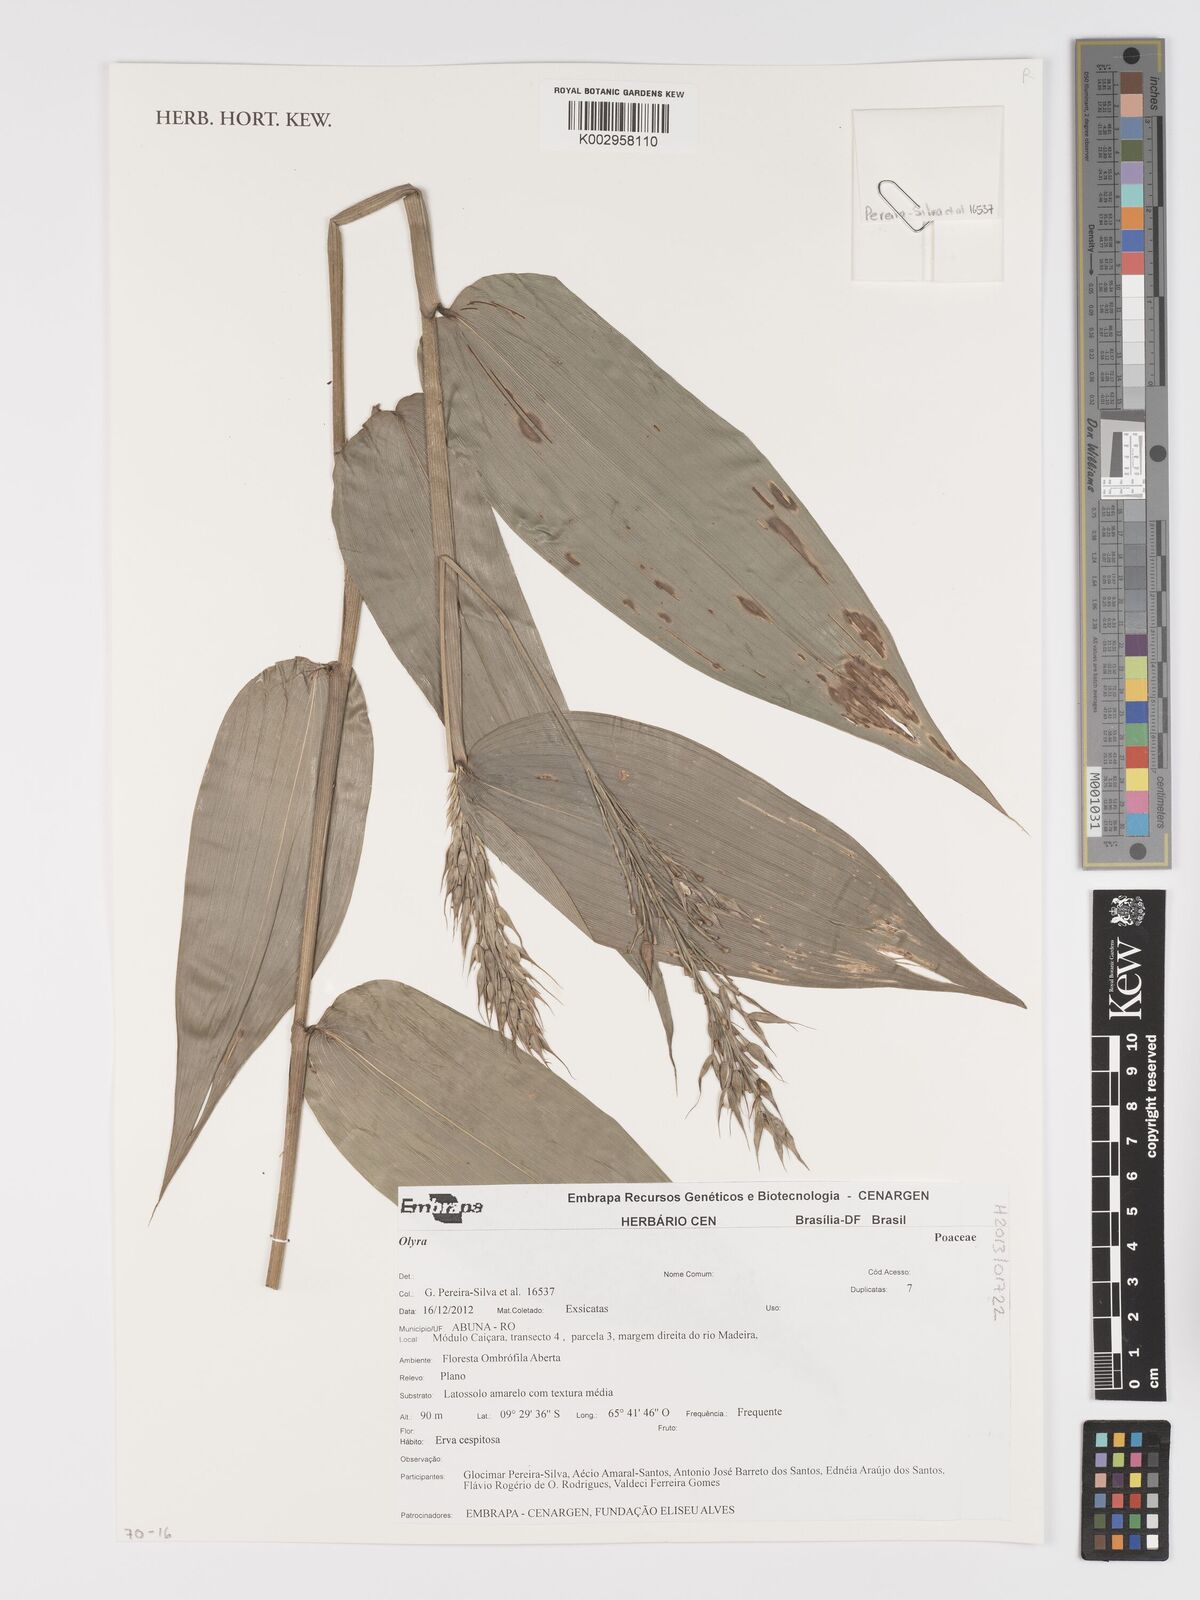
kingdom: Plantae
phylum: Tracheophyta
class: Liliopsida
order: Poales
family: Poaceae
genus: Olyra
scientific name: Olyra
